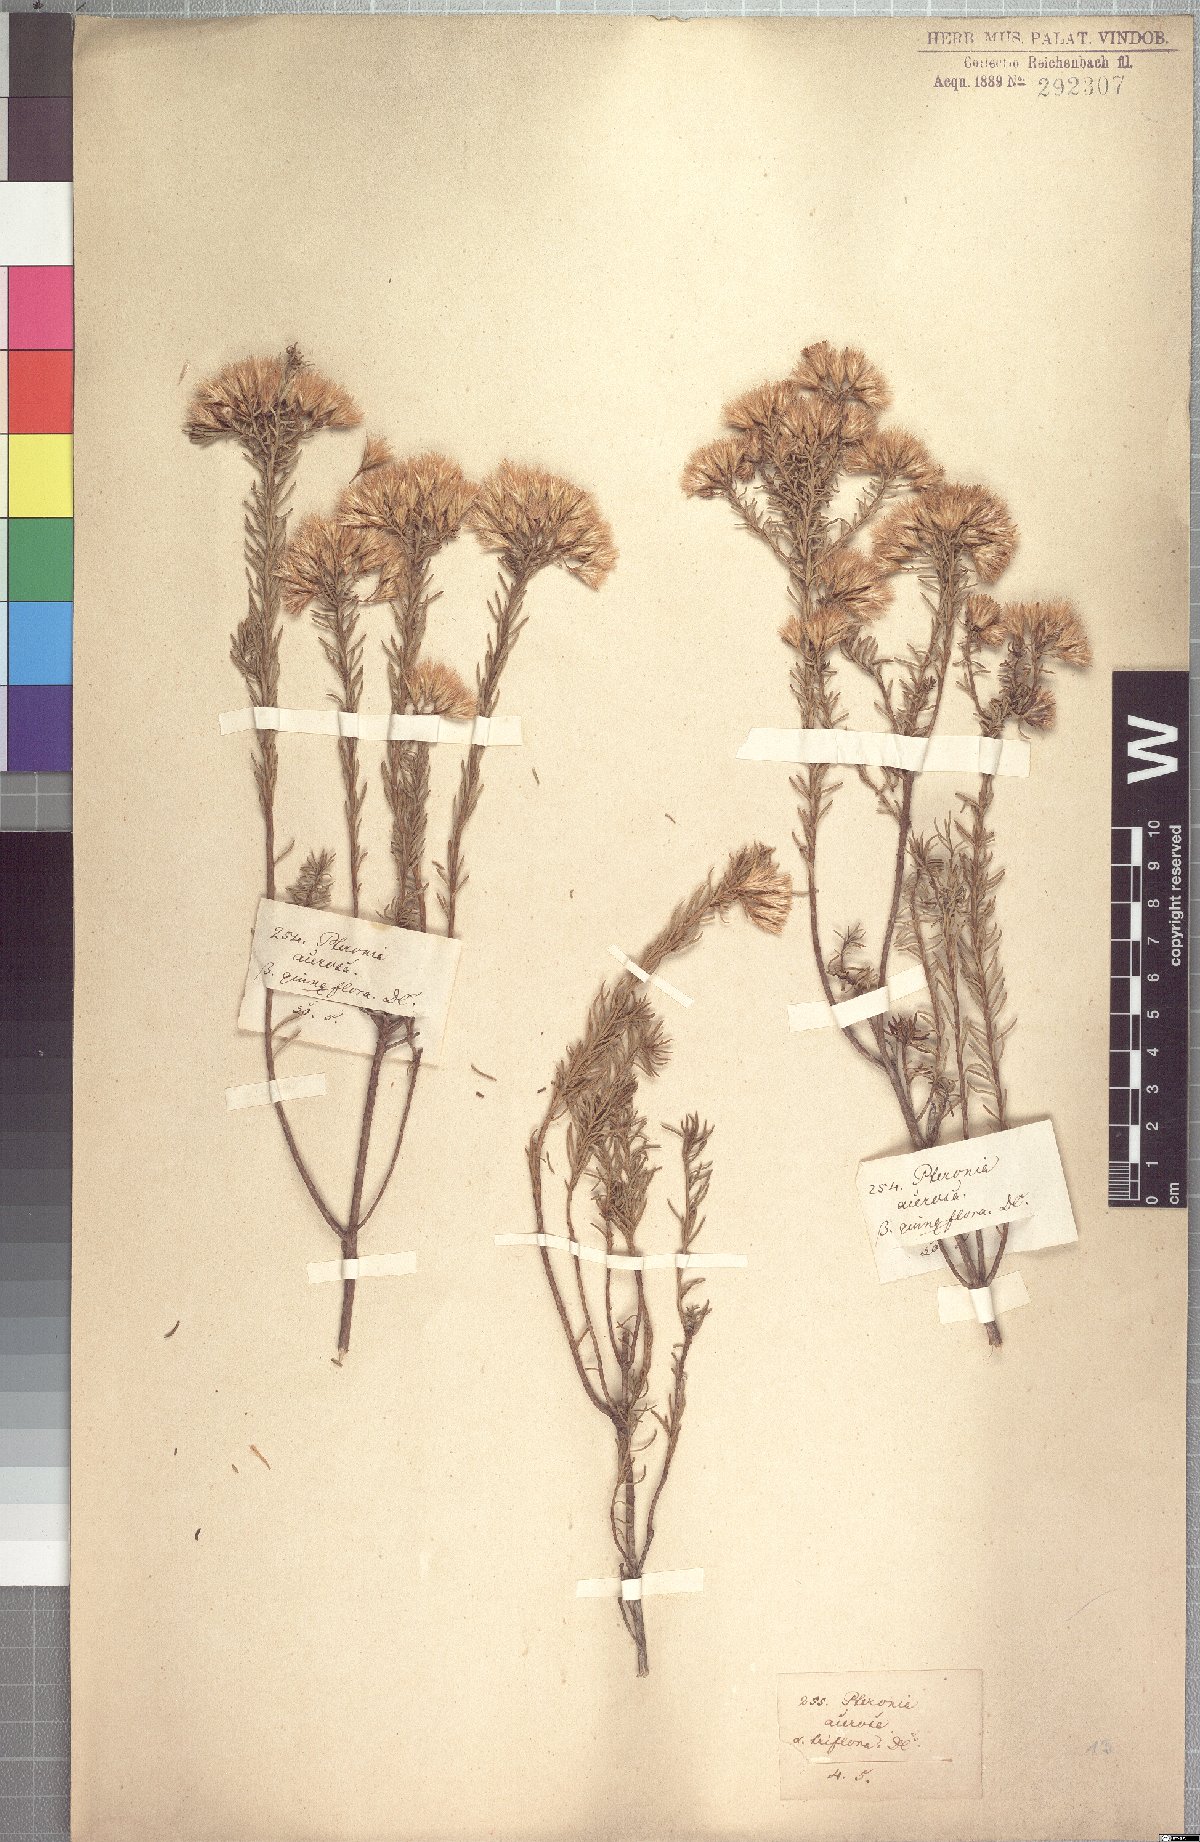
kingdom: Plantae
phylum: Tracheophyta
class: Magnoliopsida
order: Asterales
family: Asteraceae
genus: Pteronia
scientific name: Pteronia teretifolia
